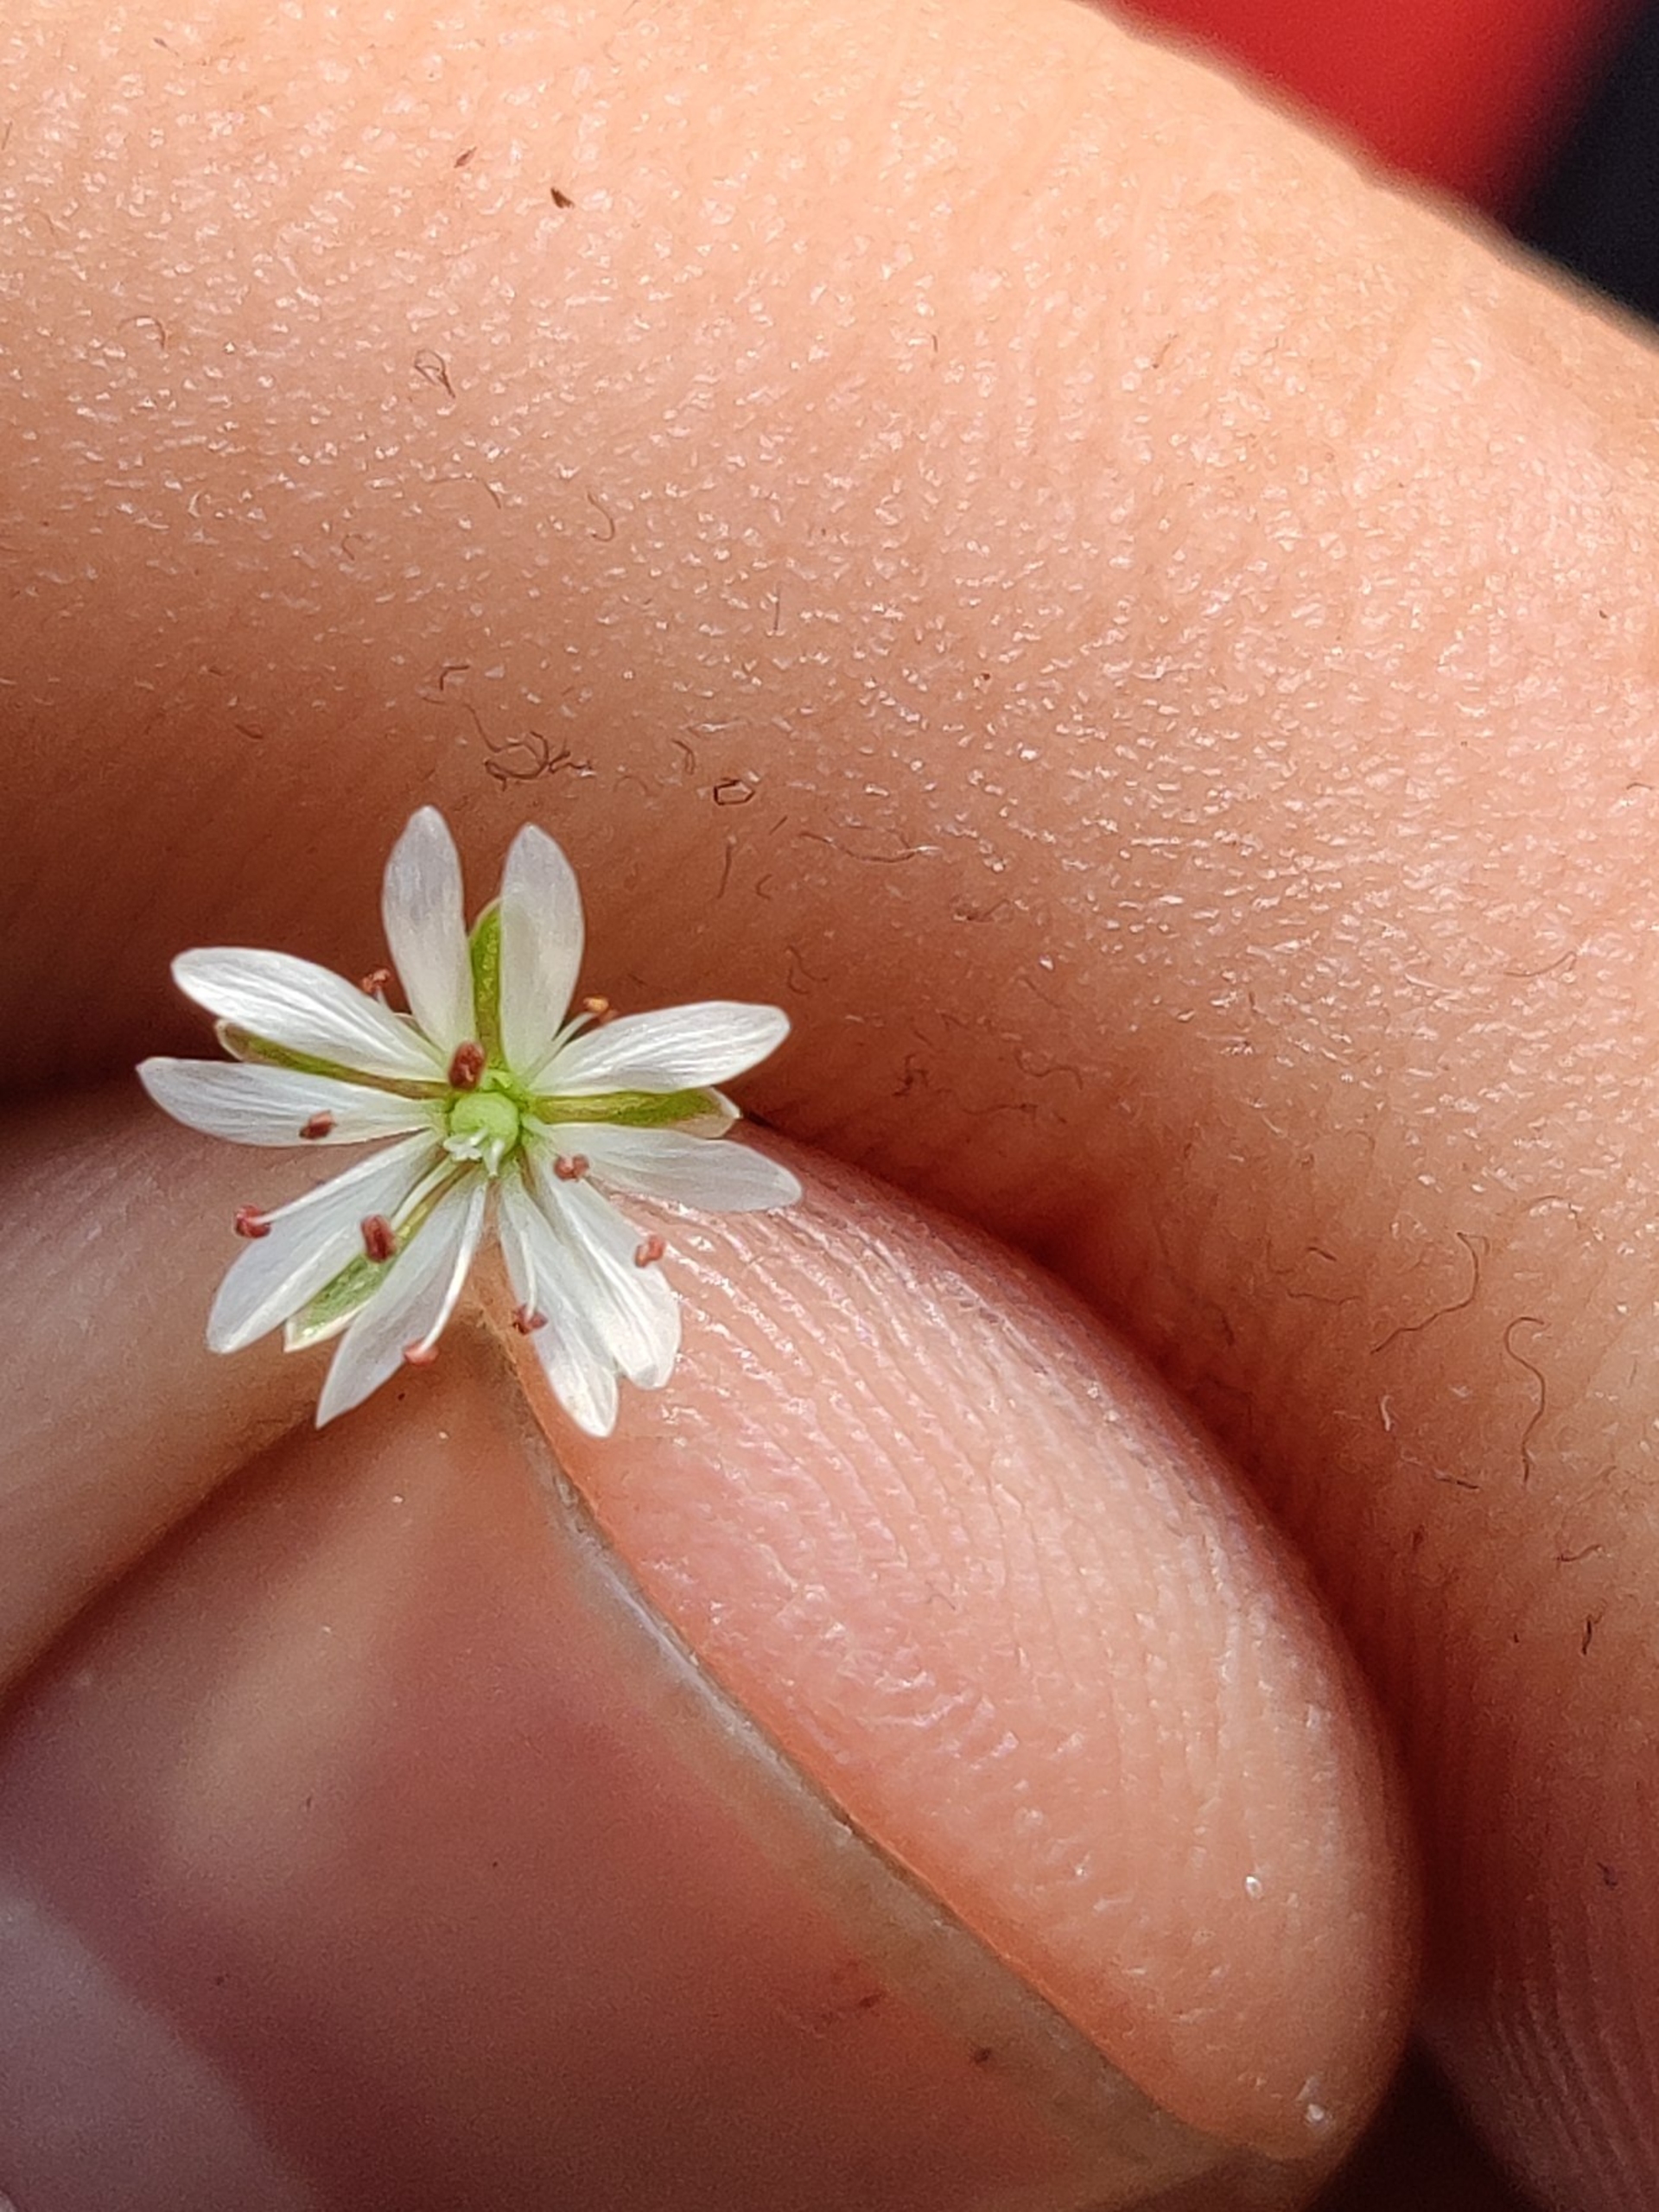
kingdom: Plantae
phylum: Tracheophyta
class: Magnoliopsida
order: Caryophyllales
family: Caryophyllaceae
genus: Stellaria
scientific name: Stellaria graminea
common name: Græsbladet fladstjerne
